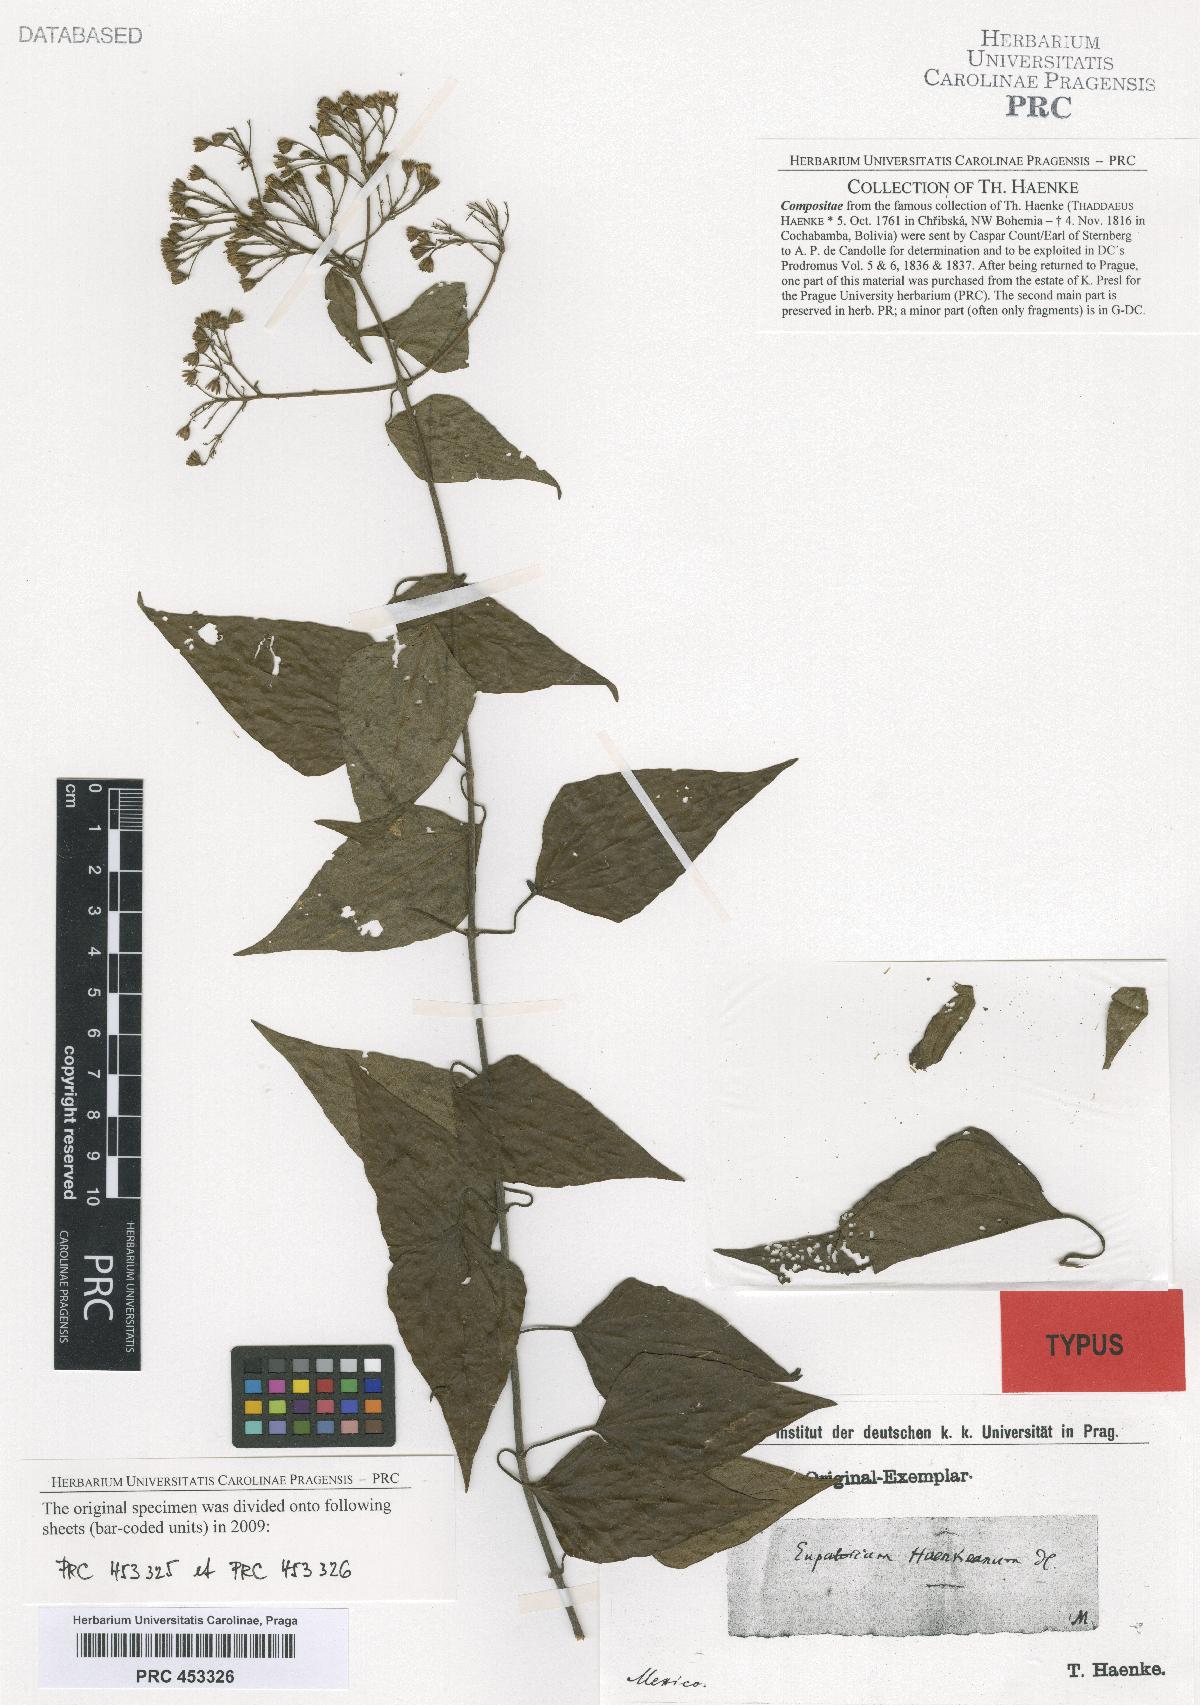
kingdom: Plantae
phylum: Tracheophyta
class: Magnoliopsida
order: Asterales
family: Asteraceae
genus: Chromolaena
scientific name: Chromolaena haenkeana
